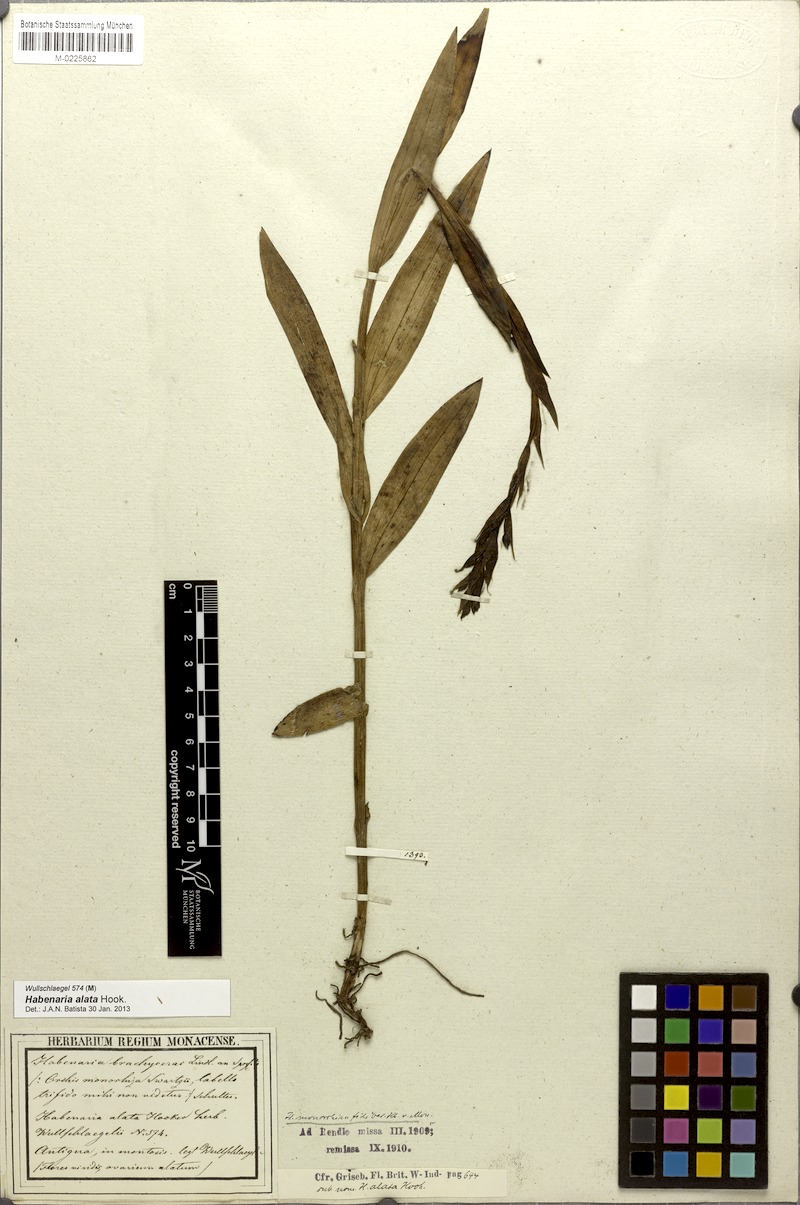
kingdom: Plantae
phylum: Tracheophyta
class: Liliopsida
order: Asparagales
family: Orchidaceae
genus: Habenaria
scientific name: Habenaria alata
